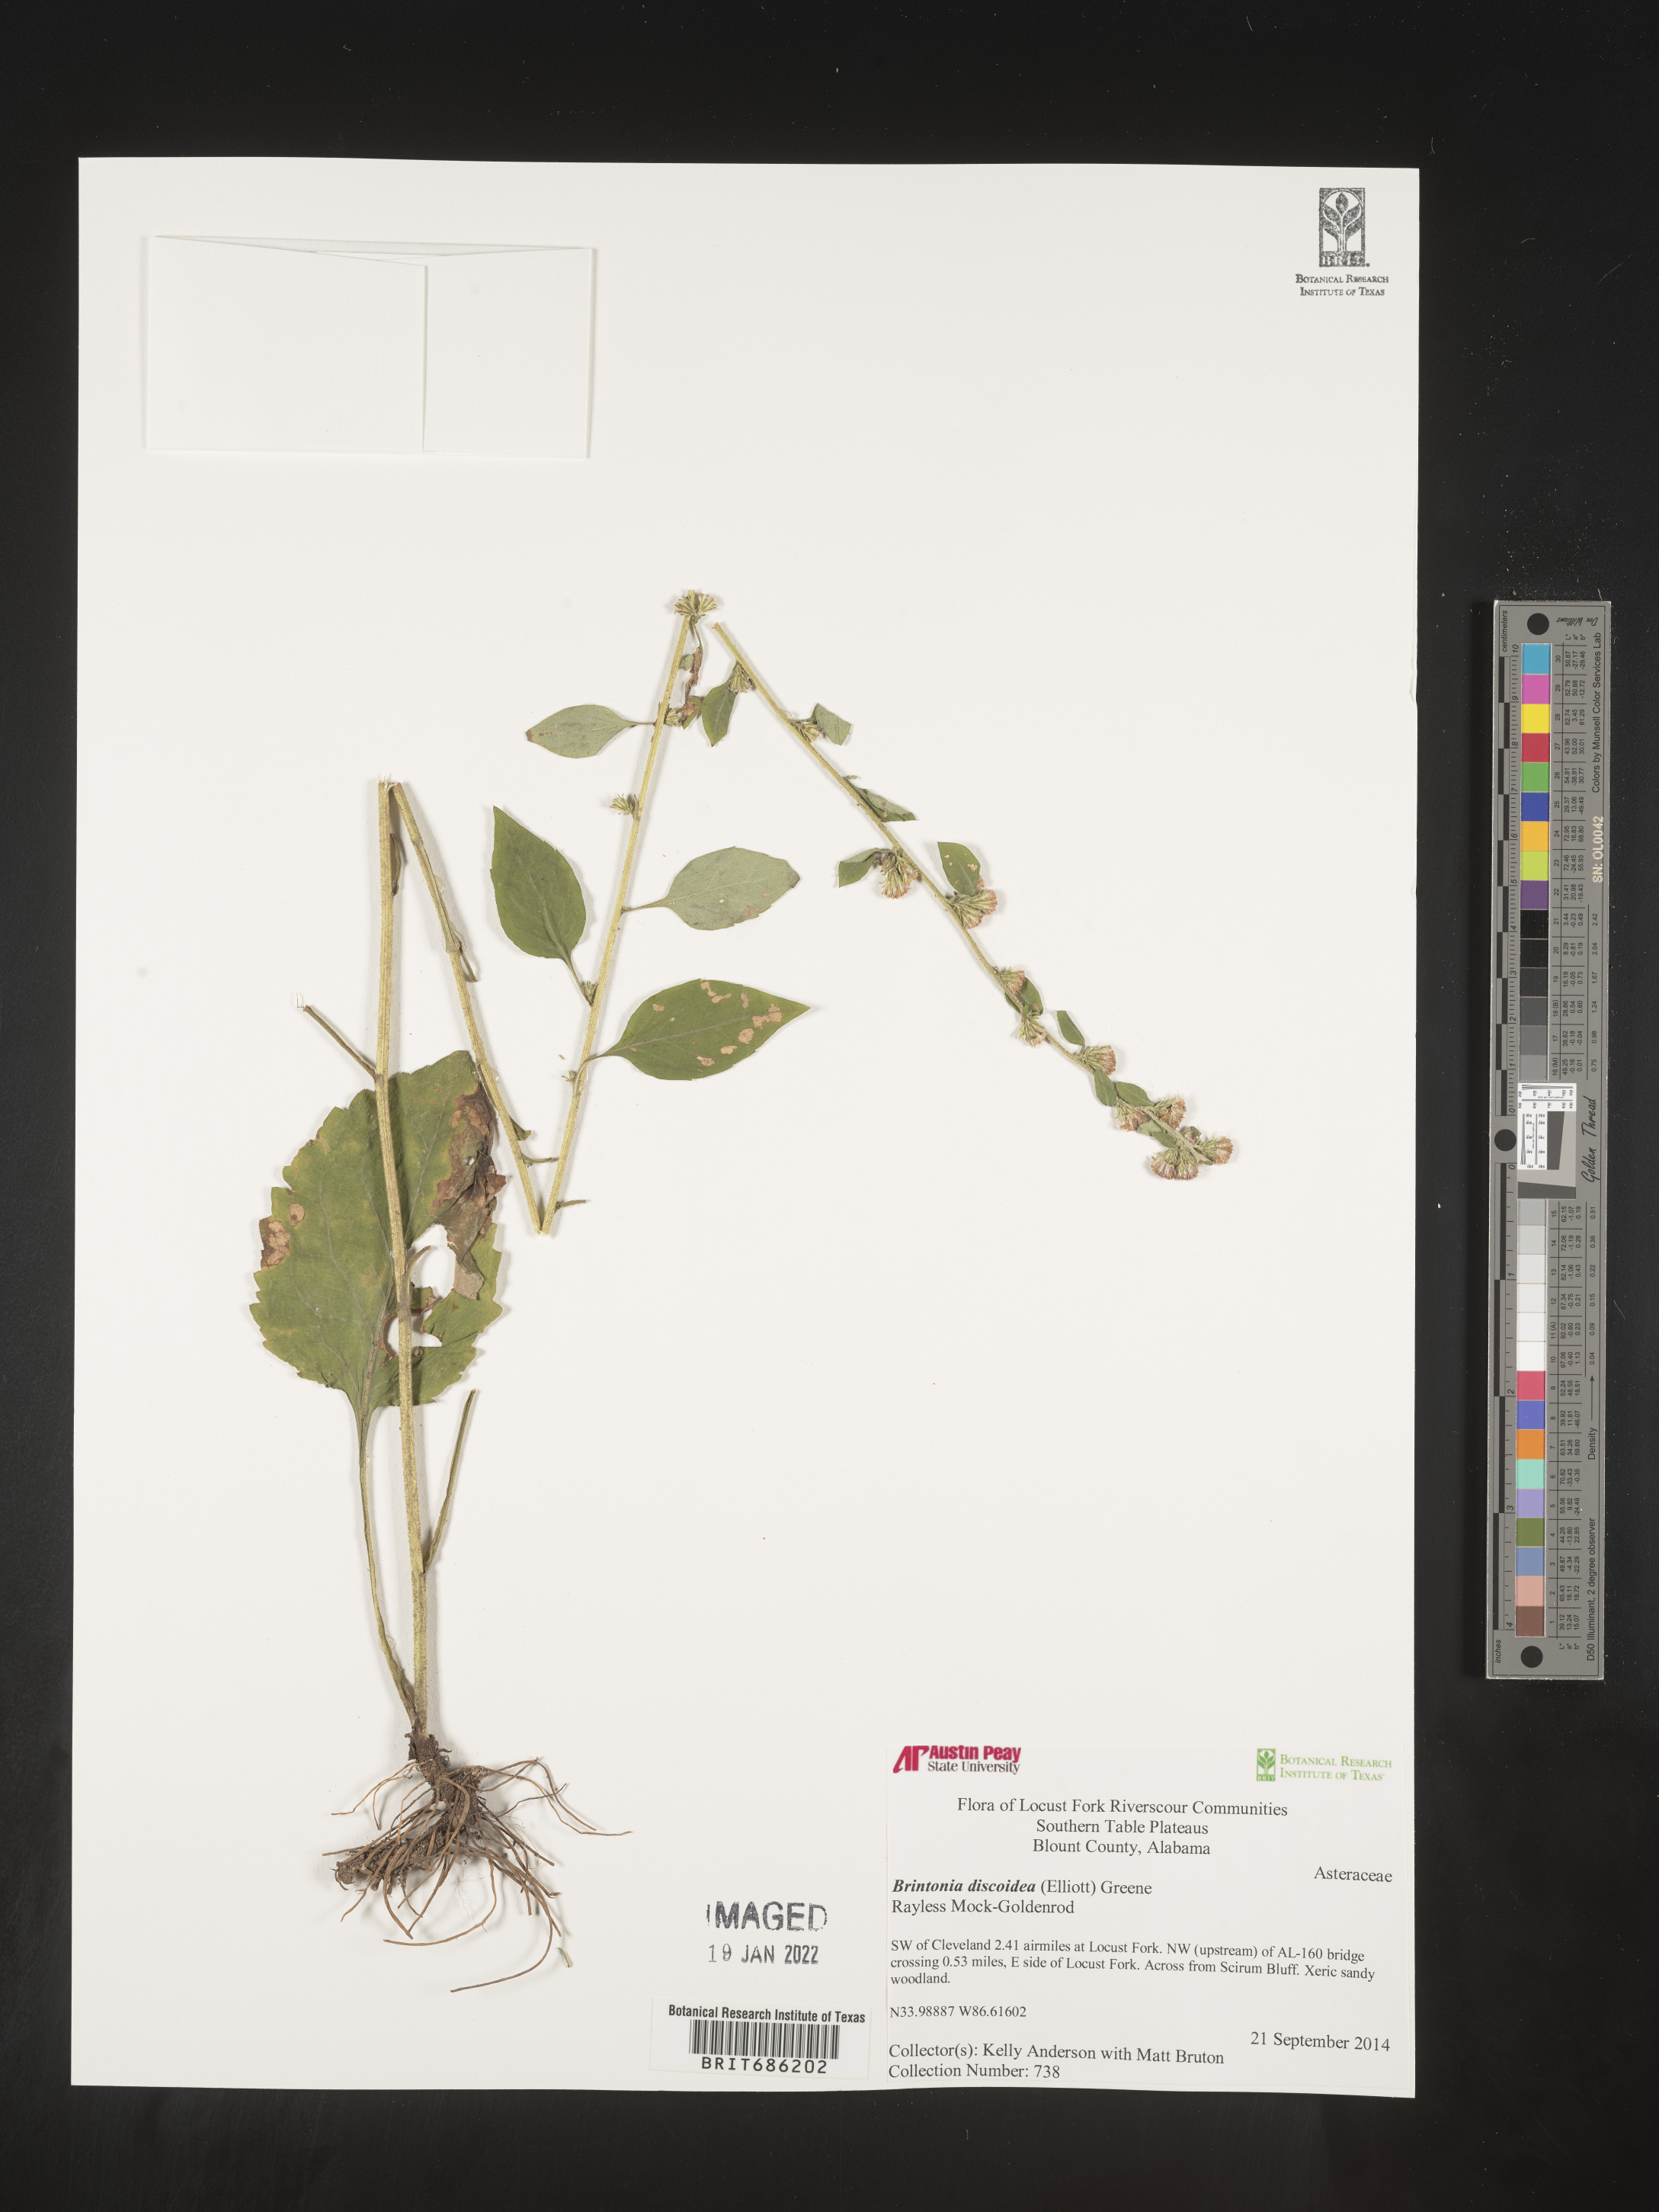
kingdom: Plantae
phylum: Tracheophyta
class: Magnoliopsida
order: Asterales
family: Asteraceae
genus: Solidago
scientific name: Solidago discoidea
